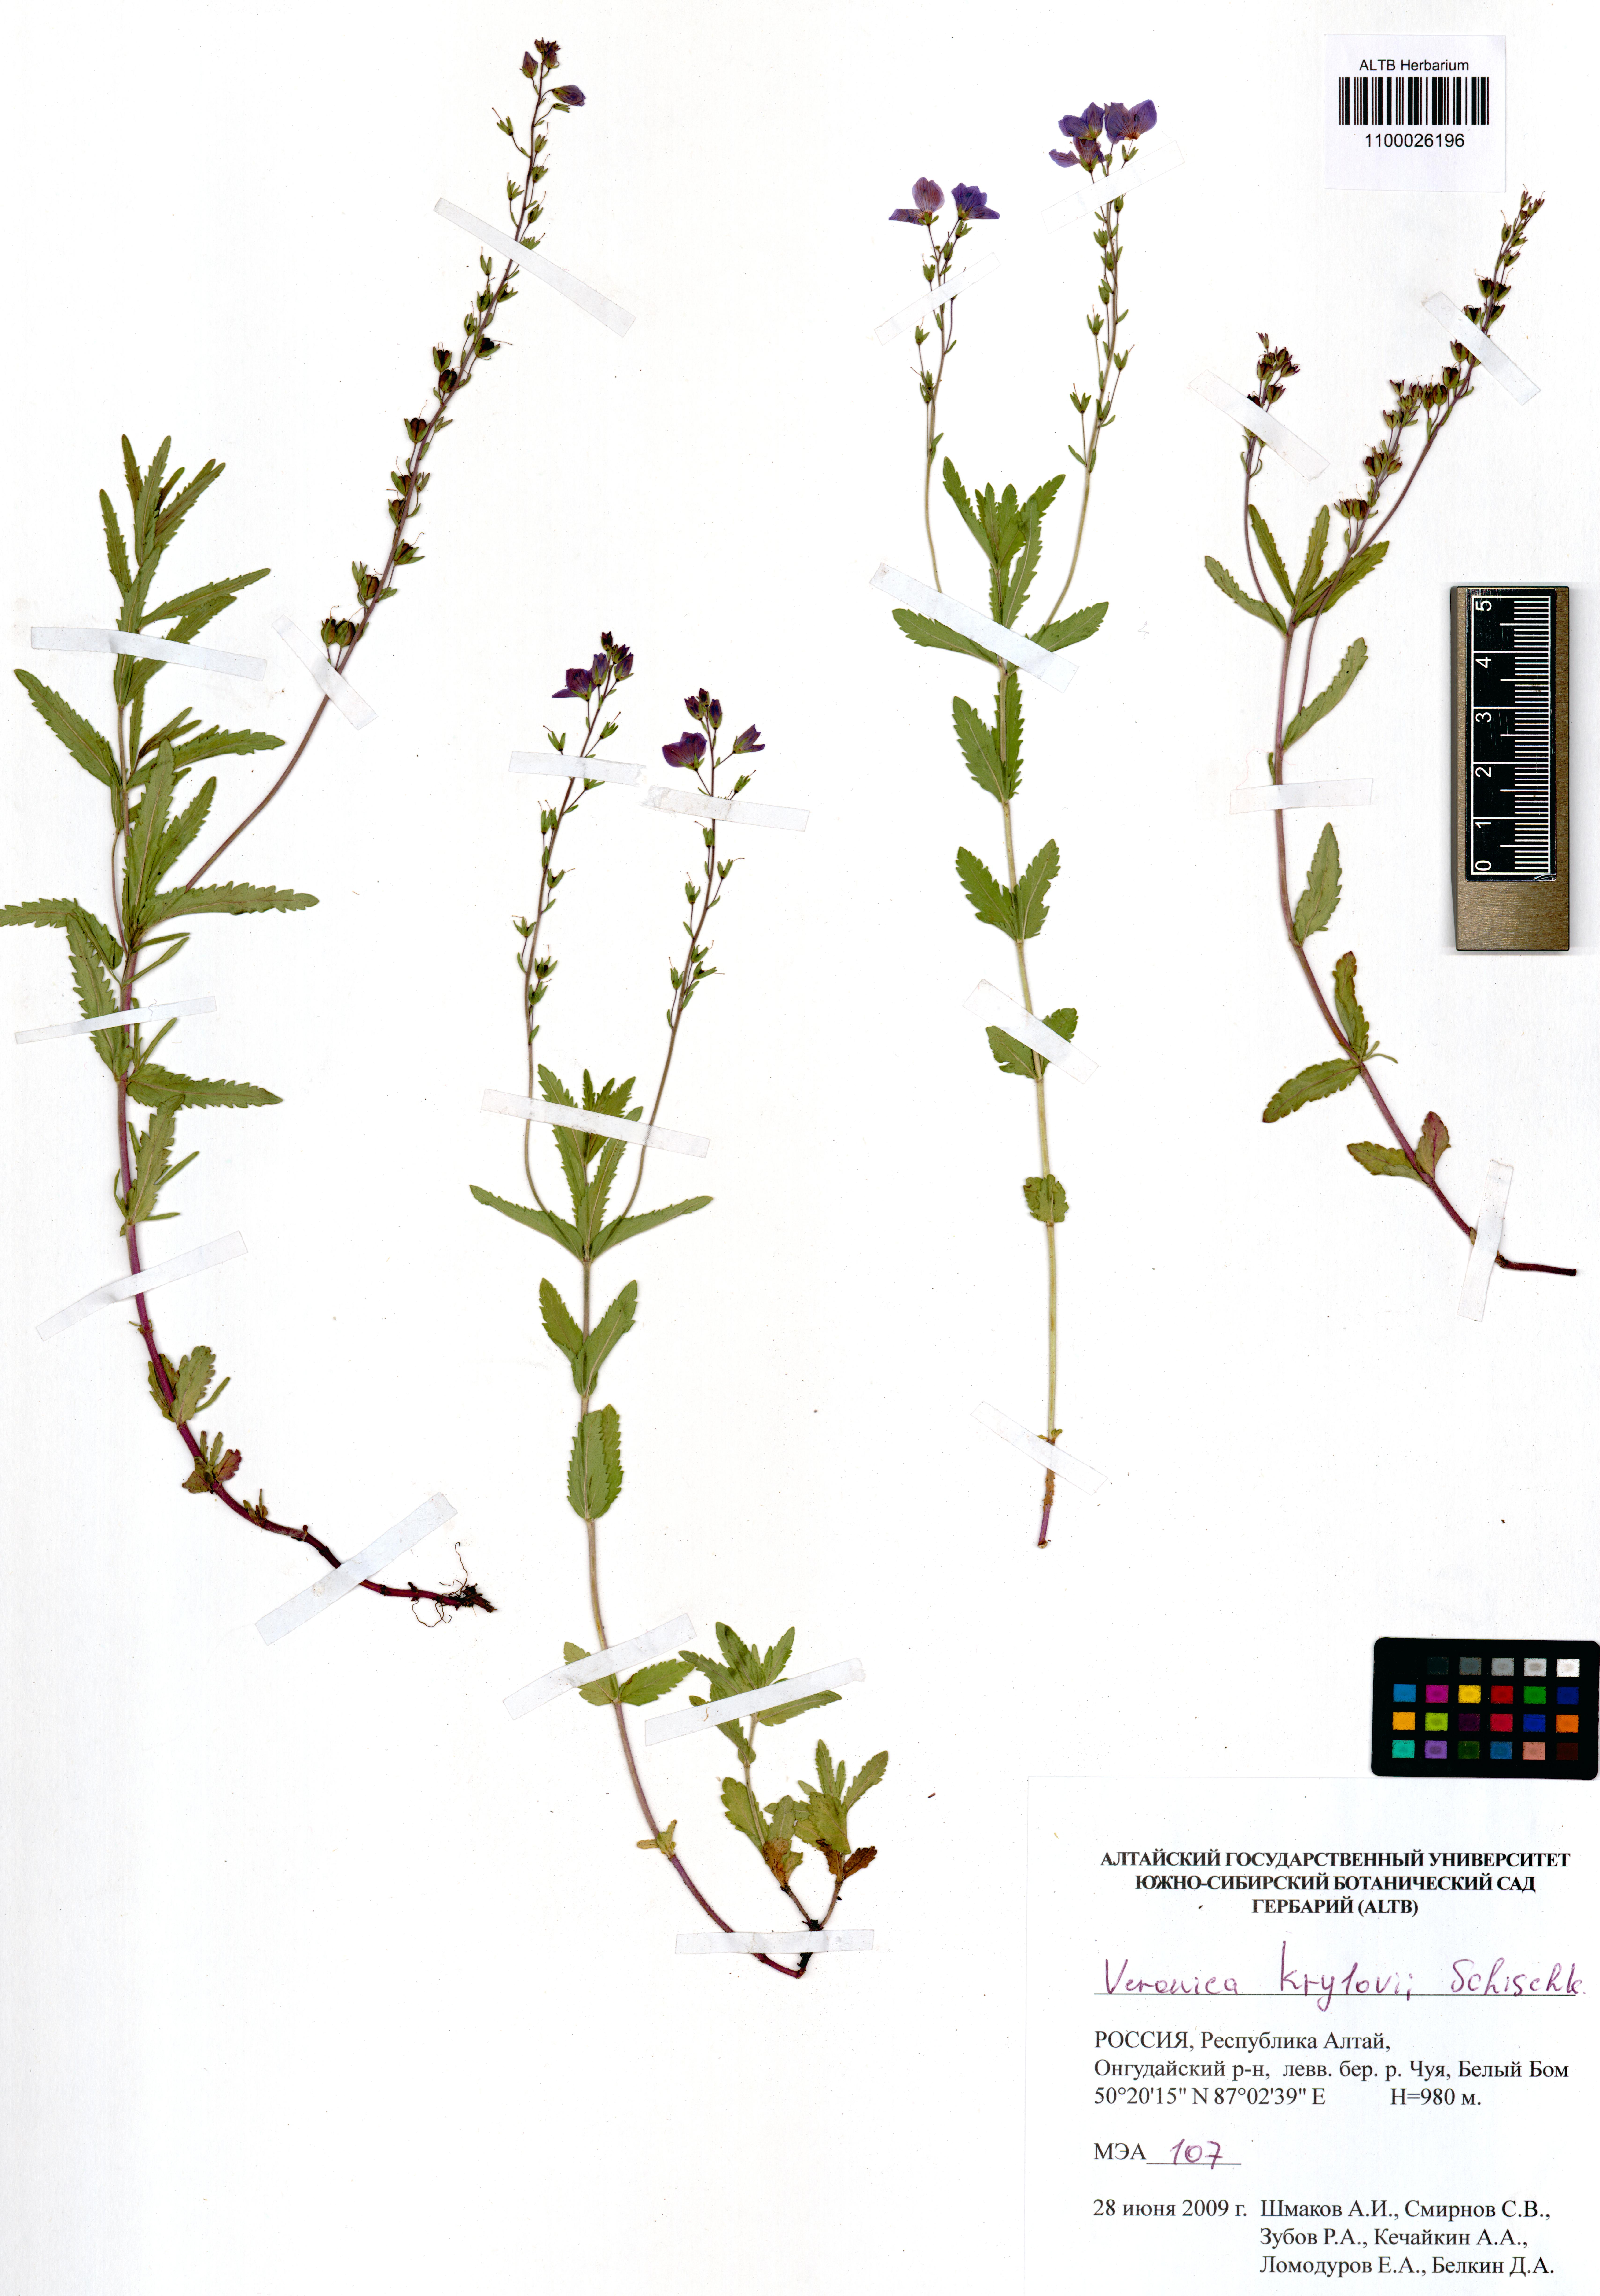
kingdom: Plantae
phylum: Tracheophyta
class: Magnoliopsida
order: Lamiales
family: Plantaginaceae
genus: Veronica
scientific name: Veronica krylovii
